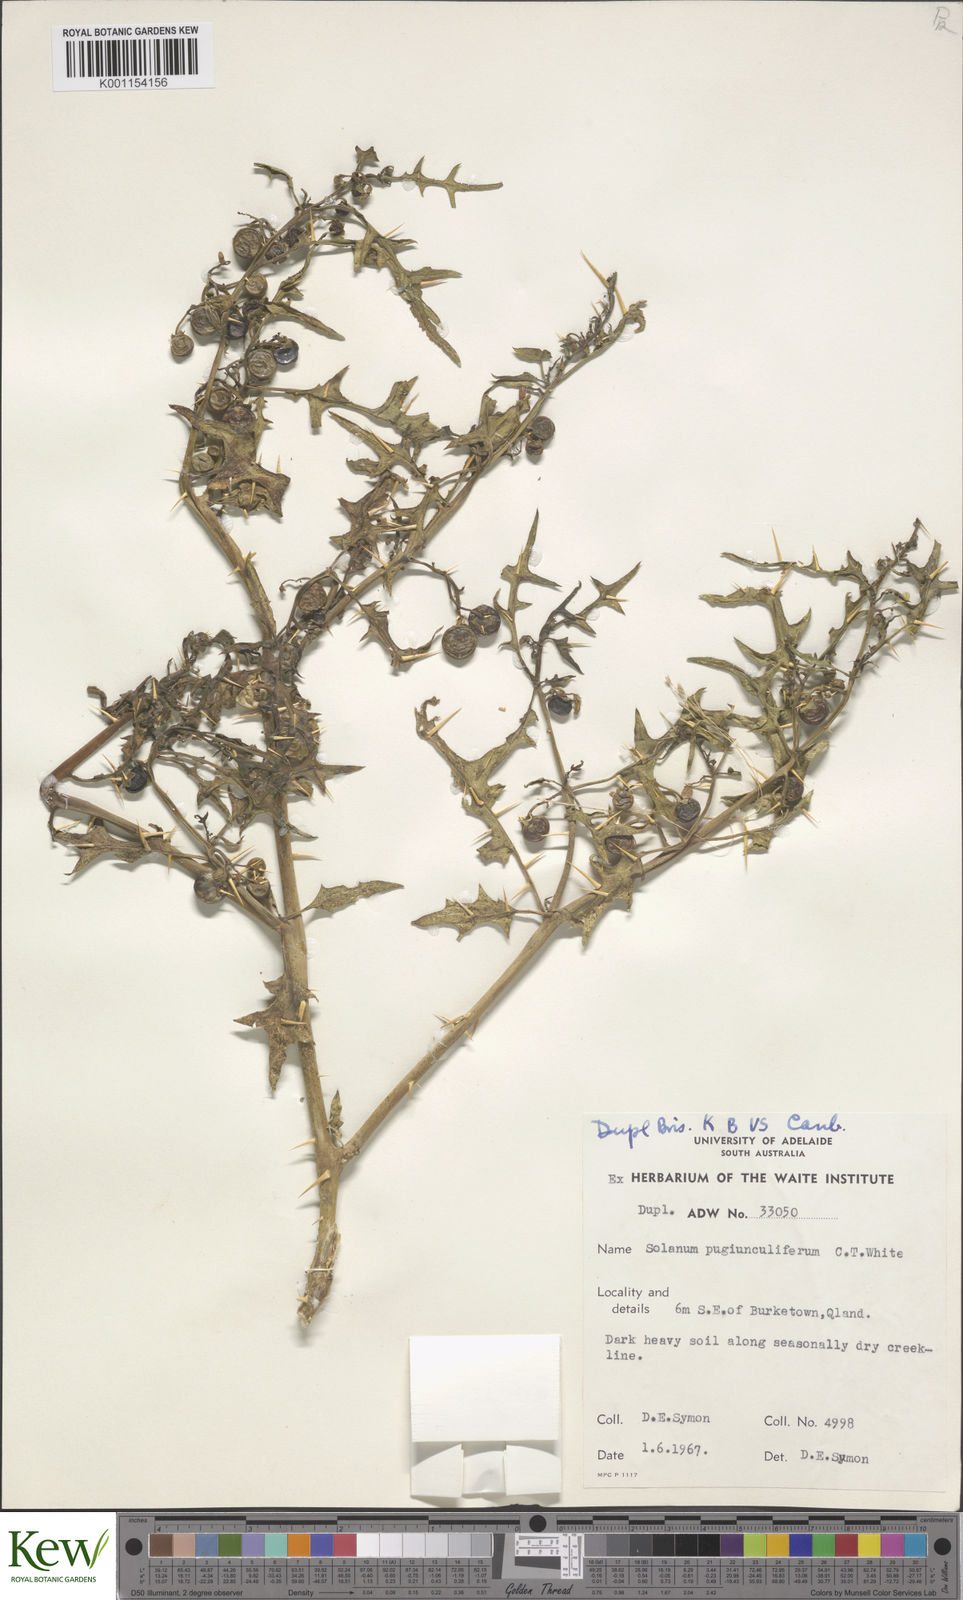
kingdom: Plantae
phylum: Tracheophyta
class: Magnoliopsida
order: Solanales
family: Solanaceae
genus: Solanum
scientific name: Solanum pugiunculiferum
